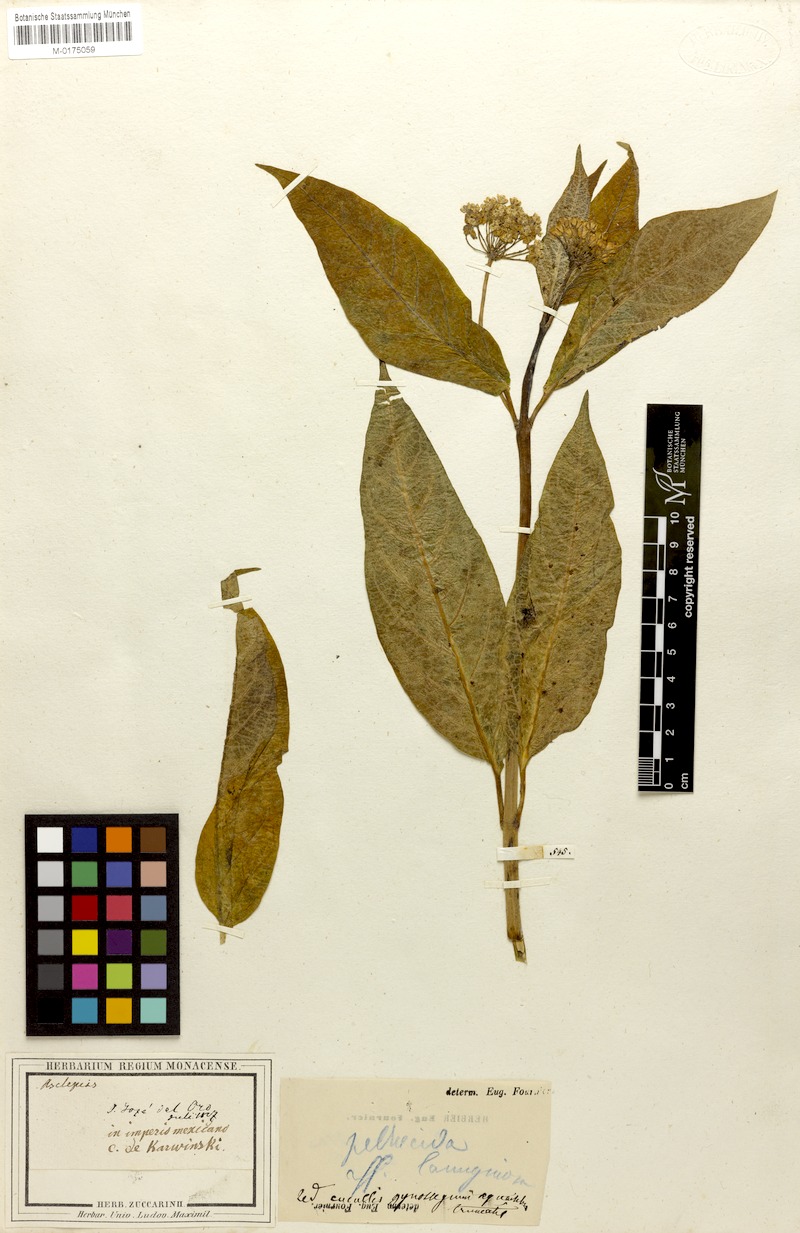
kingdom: Plantae
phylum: Tracheophyta
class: Magnoliopsida
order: Gentianales
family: Apocynaceae
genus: Asclepias
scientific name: Asclepias pellucida
